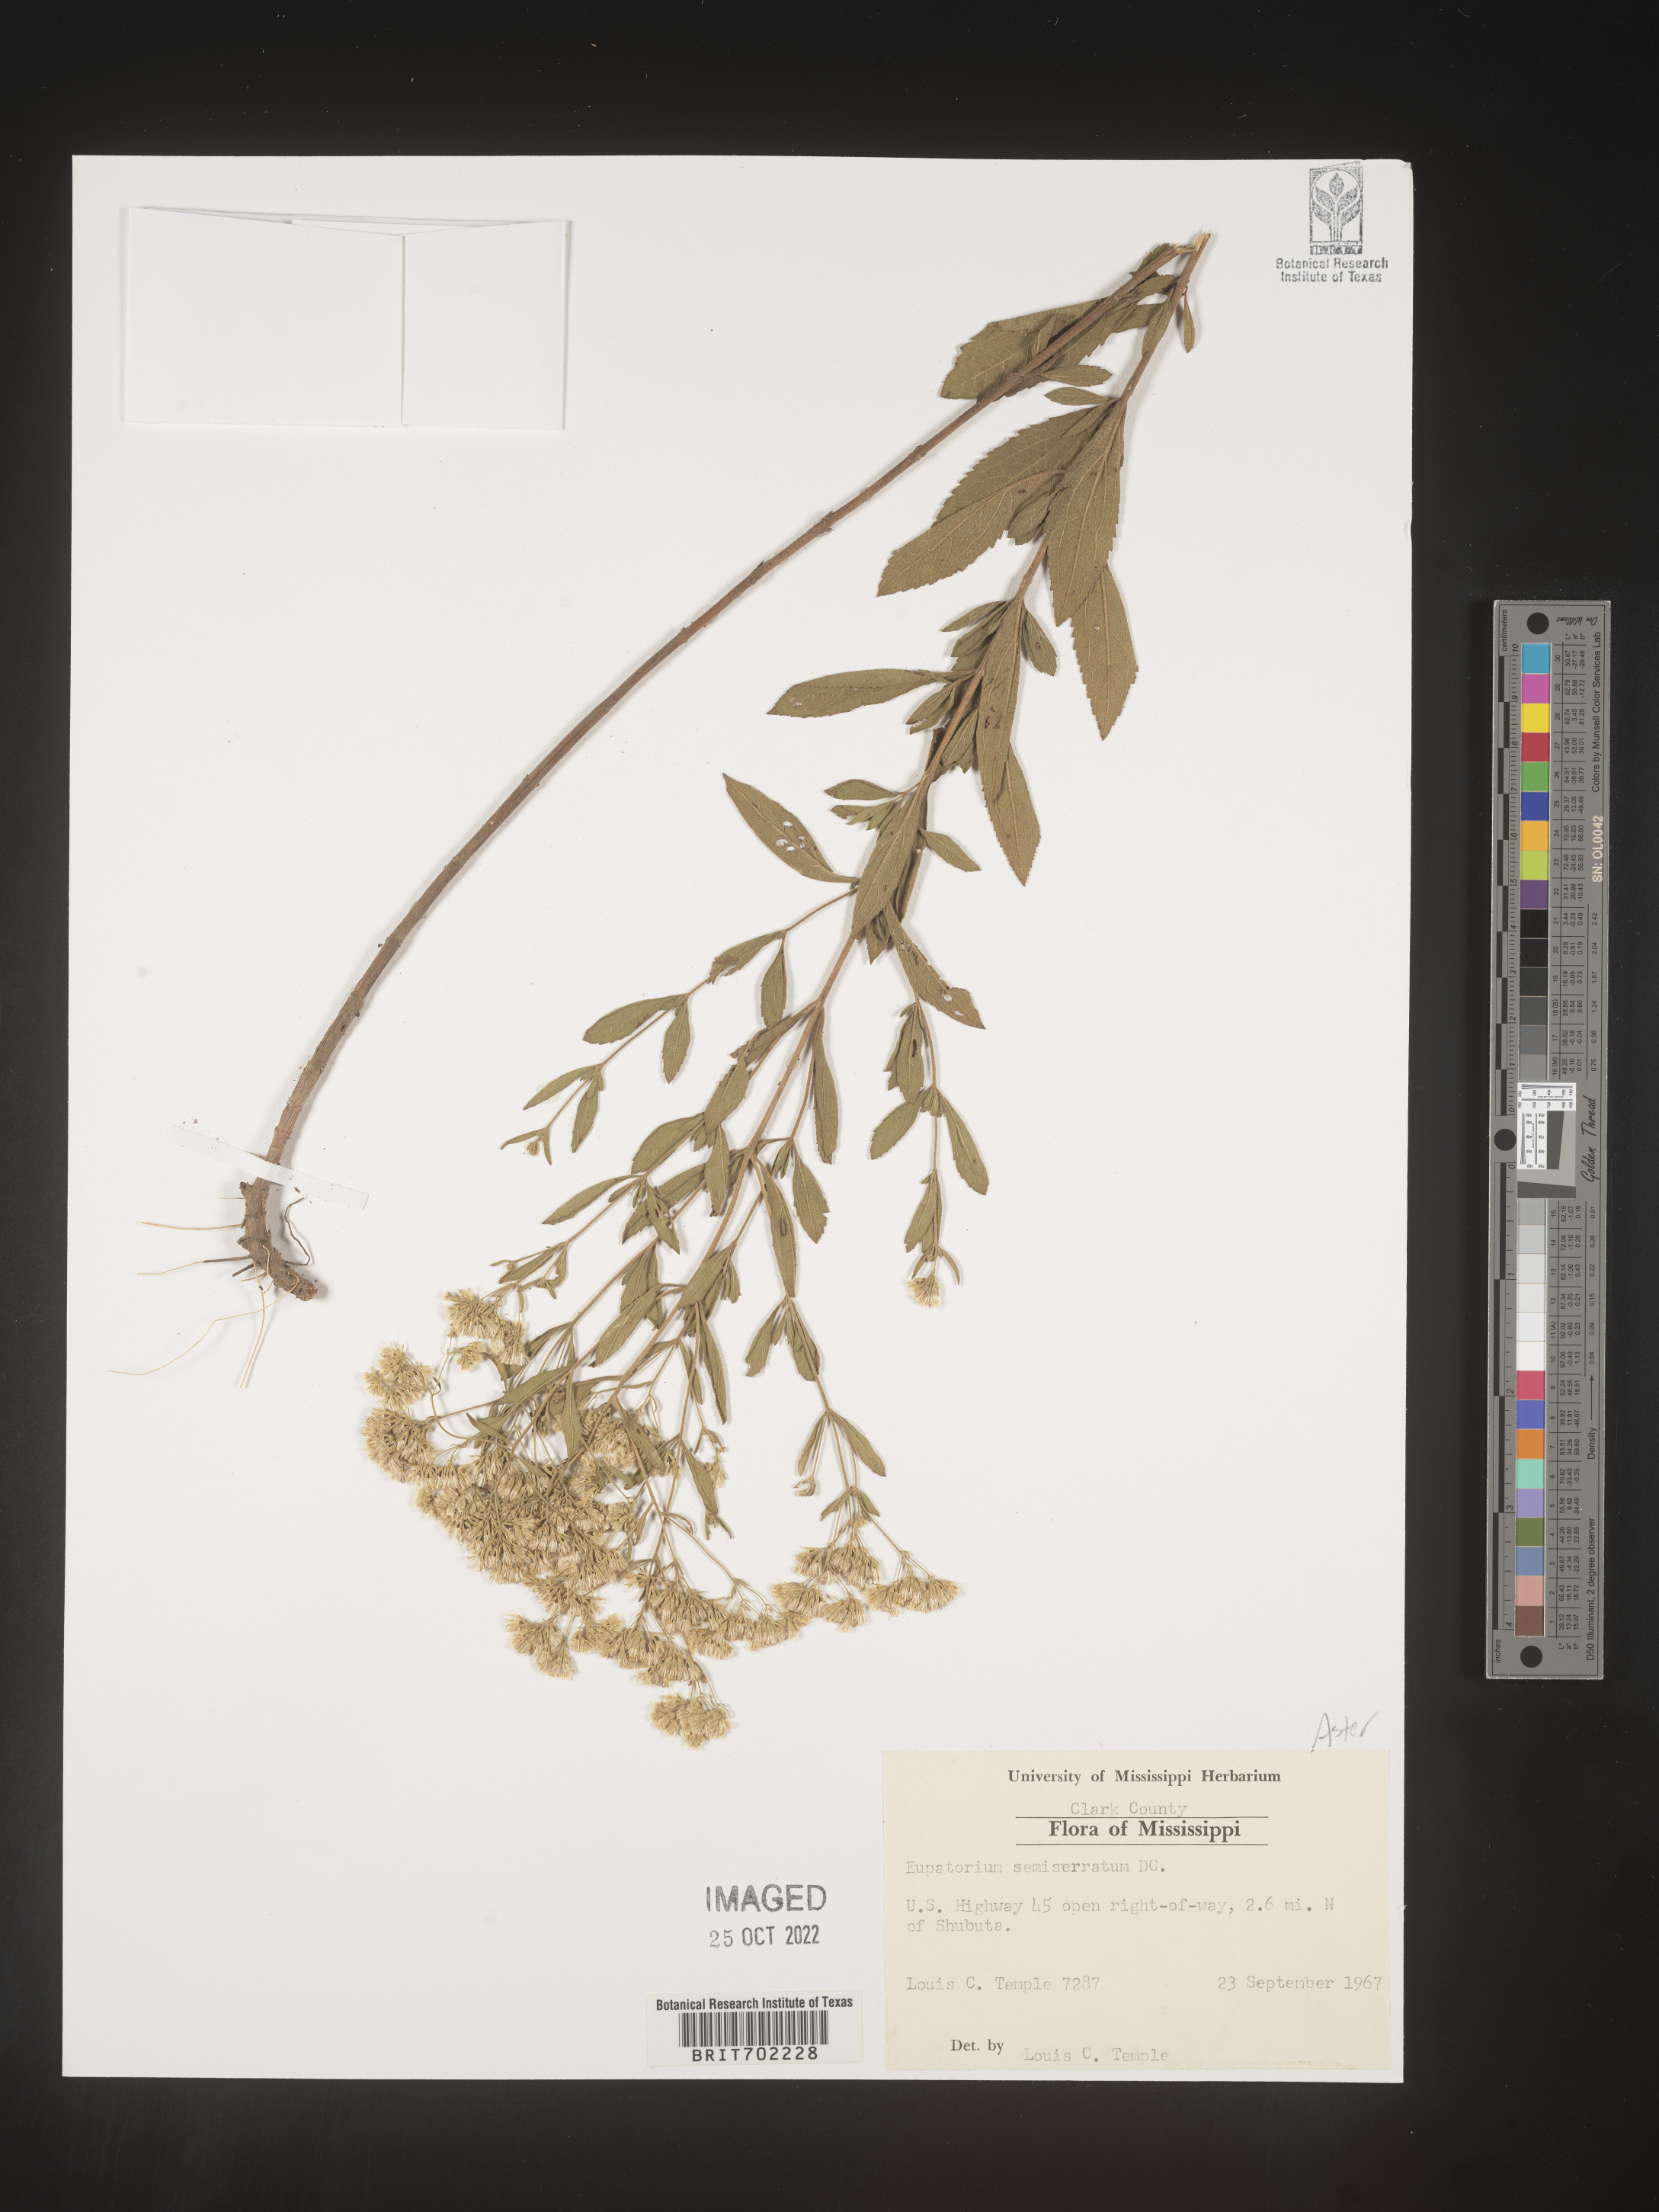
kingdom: Plantae
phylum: Tracheophyta
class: Magnoliopsida
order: Asterales
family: Asteraceae
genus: Eupatorium
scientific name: Eupatorium semiserratum
